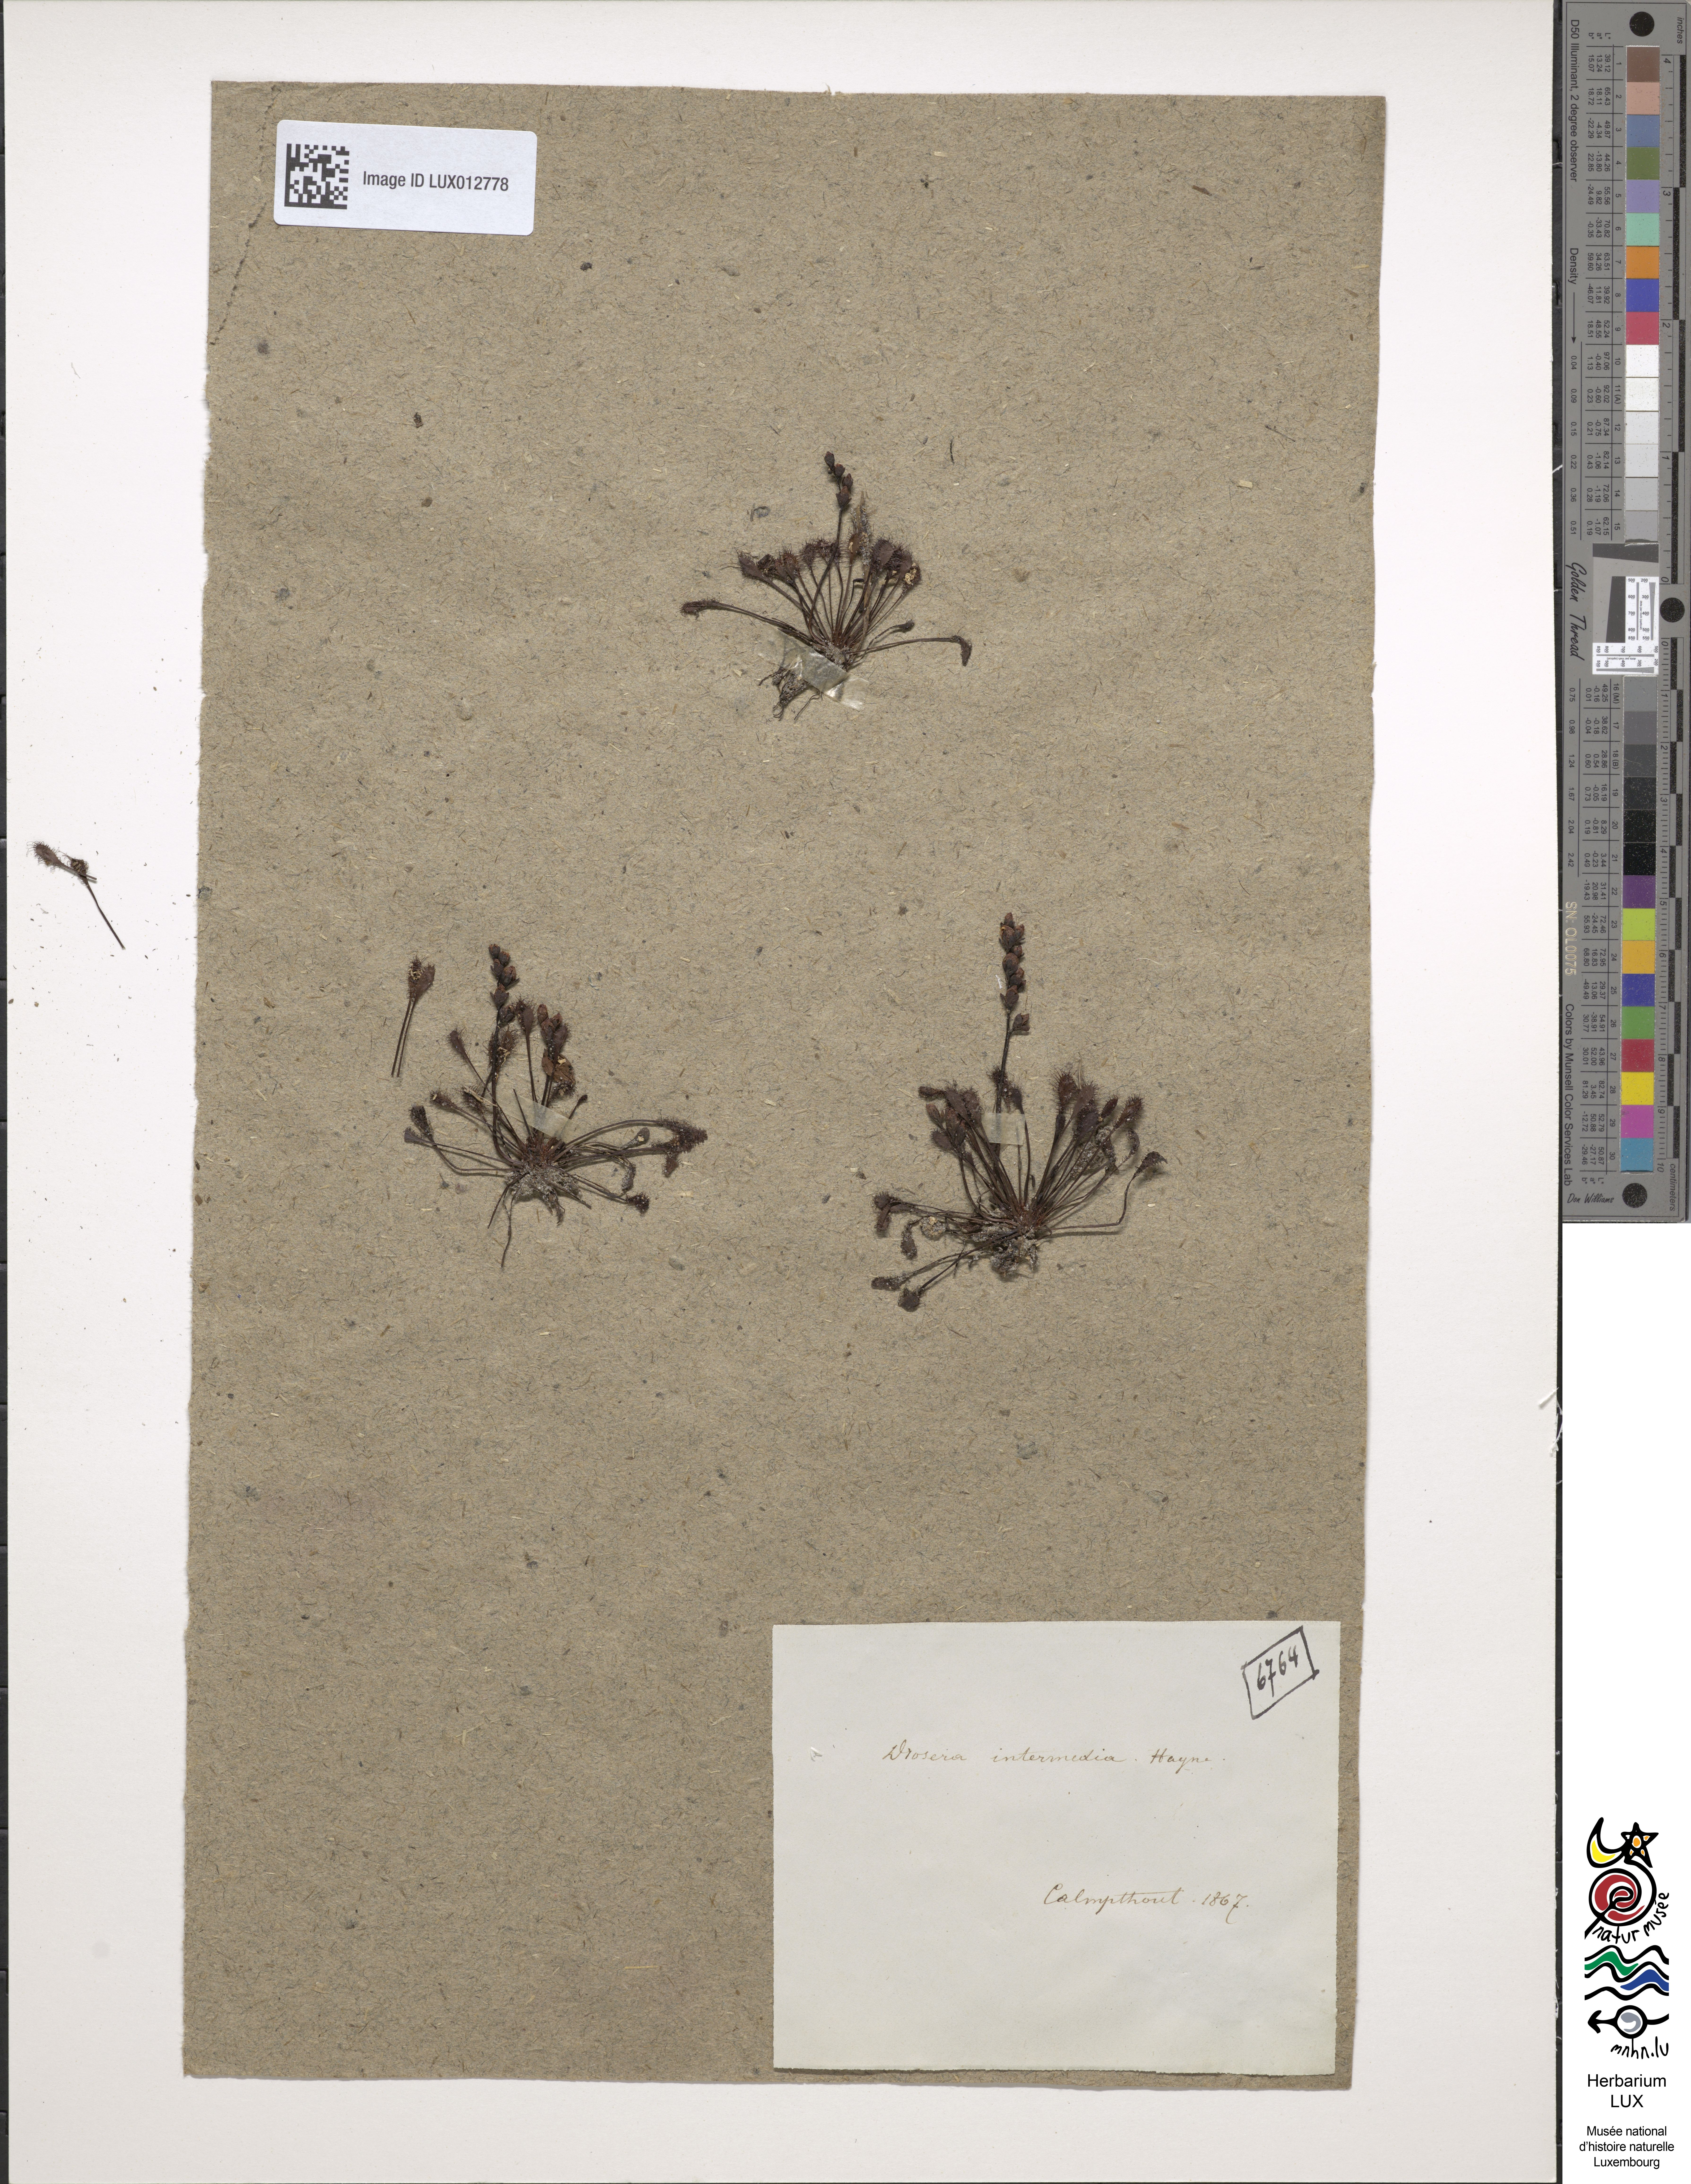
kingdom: Plantae
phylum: Tracheophyta
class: Magnoliopsida
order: Caryophyllales
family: Droseraceae
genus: Drosera
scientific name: Drosera intermedia
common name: Oblong-leaved sundew
